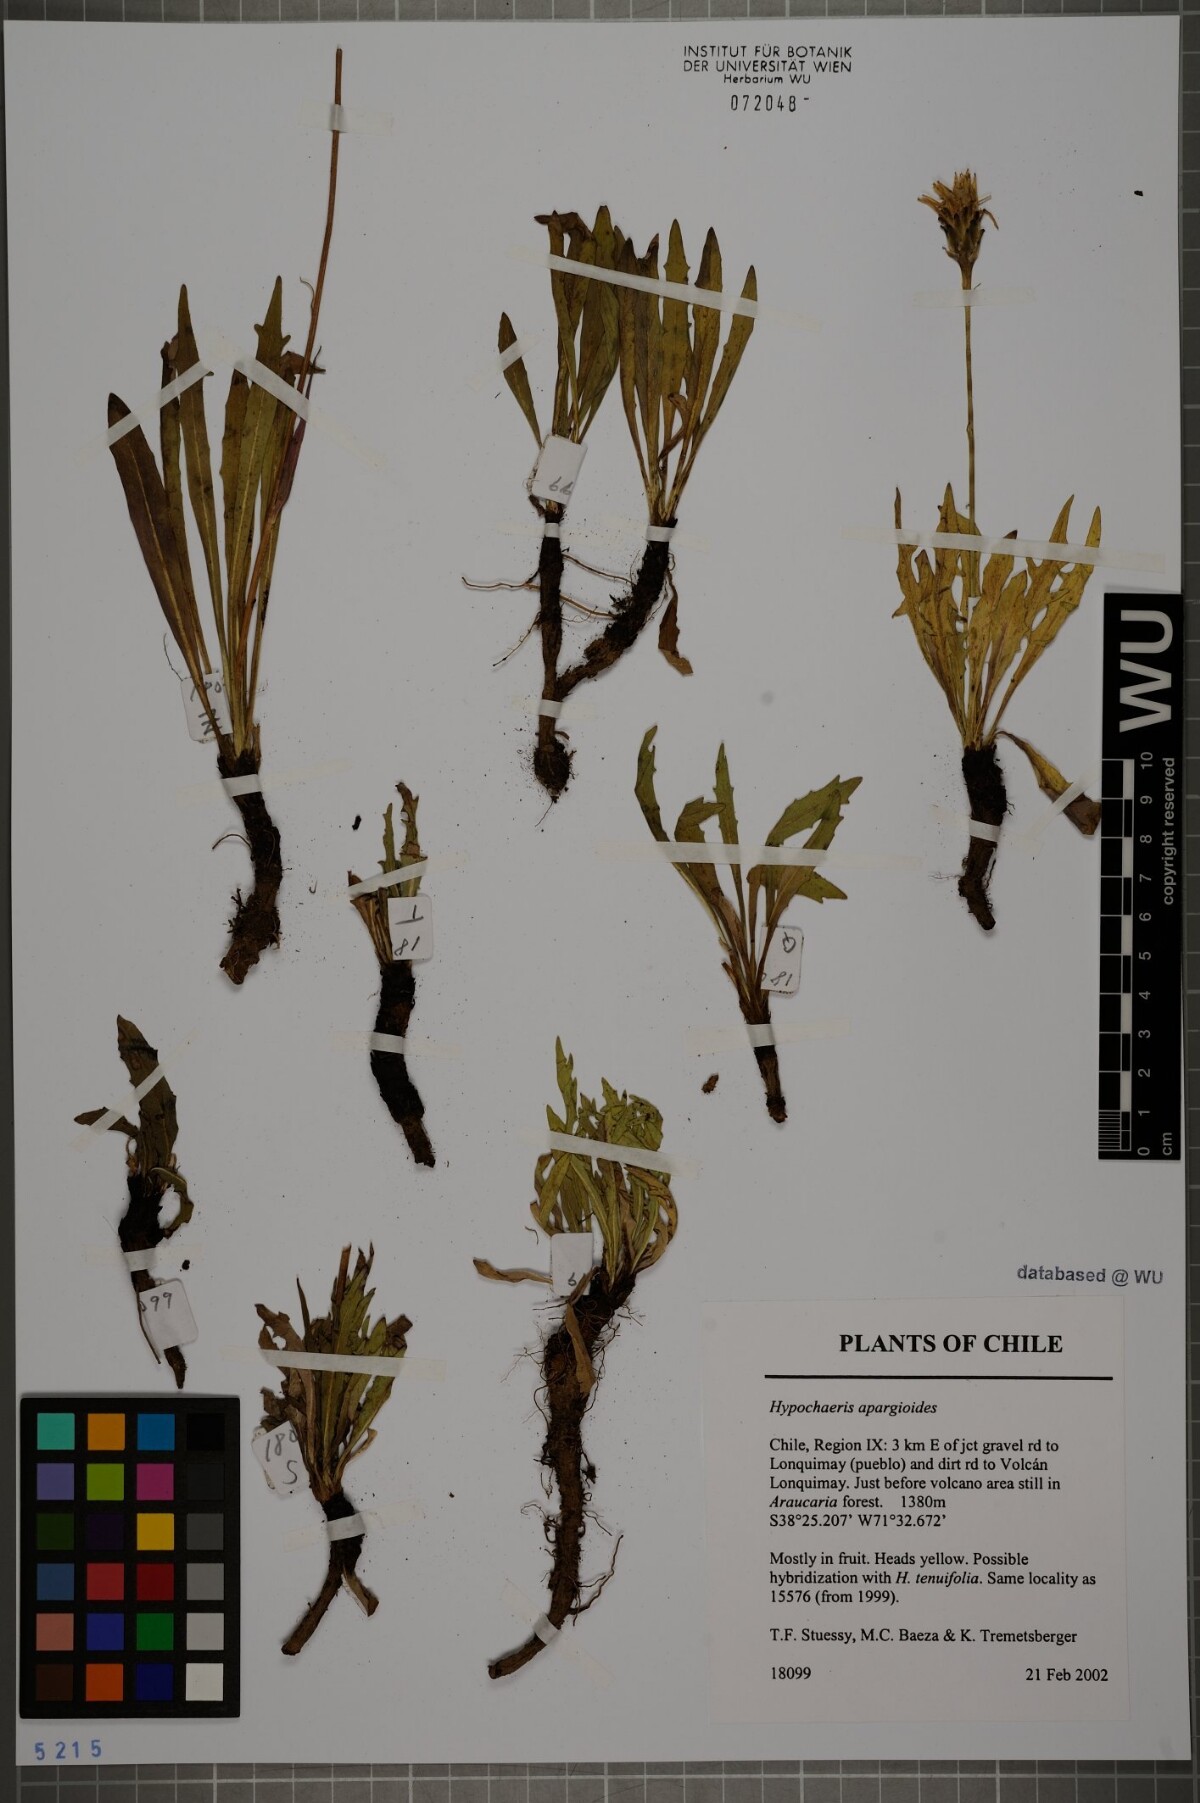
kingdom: Plantae
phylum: Tracheophyta
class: Magnoliopsida
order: Asterales
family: Asteraceae
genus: Hypochaeris
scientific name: Hypochaeris apargioides
